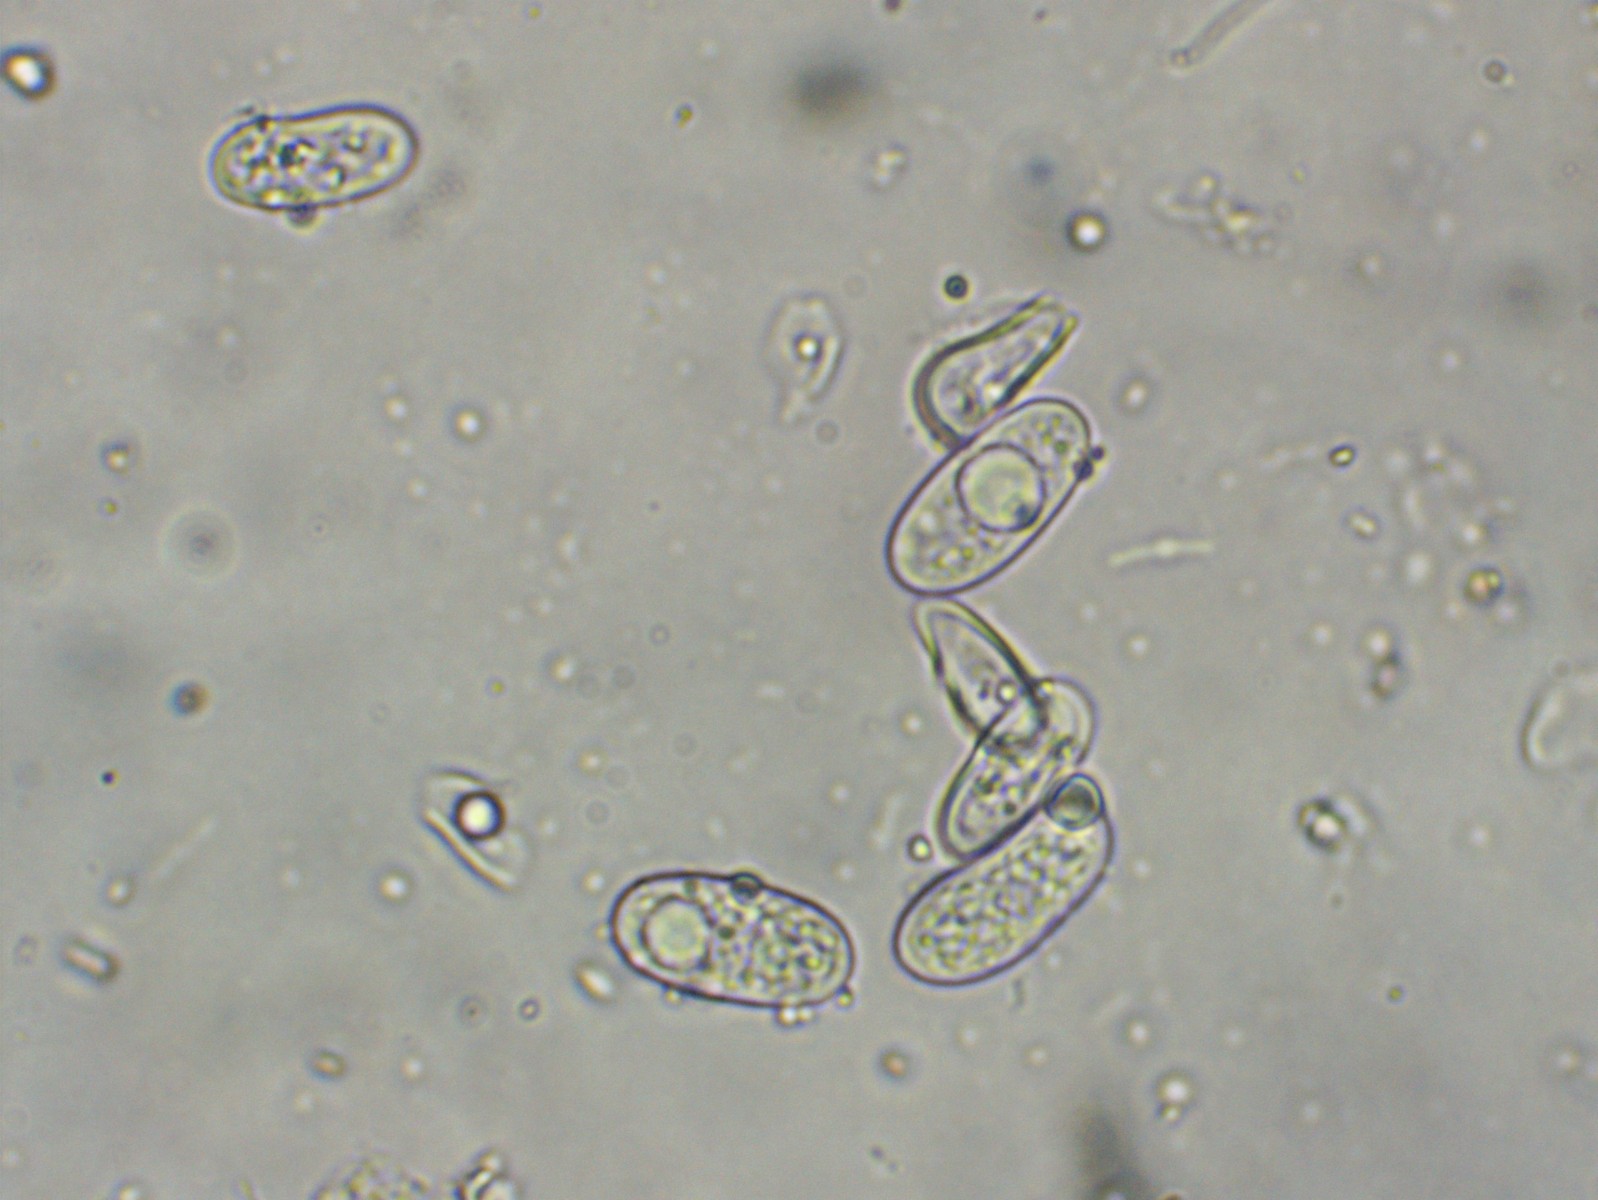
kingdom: Fungi
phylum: Ascomycota
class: Sordariomycetes
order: Diaporthales
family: Lamproconiaceae
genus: Hercospora
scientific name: Hercospora tiliae
